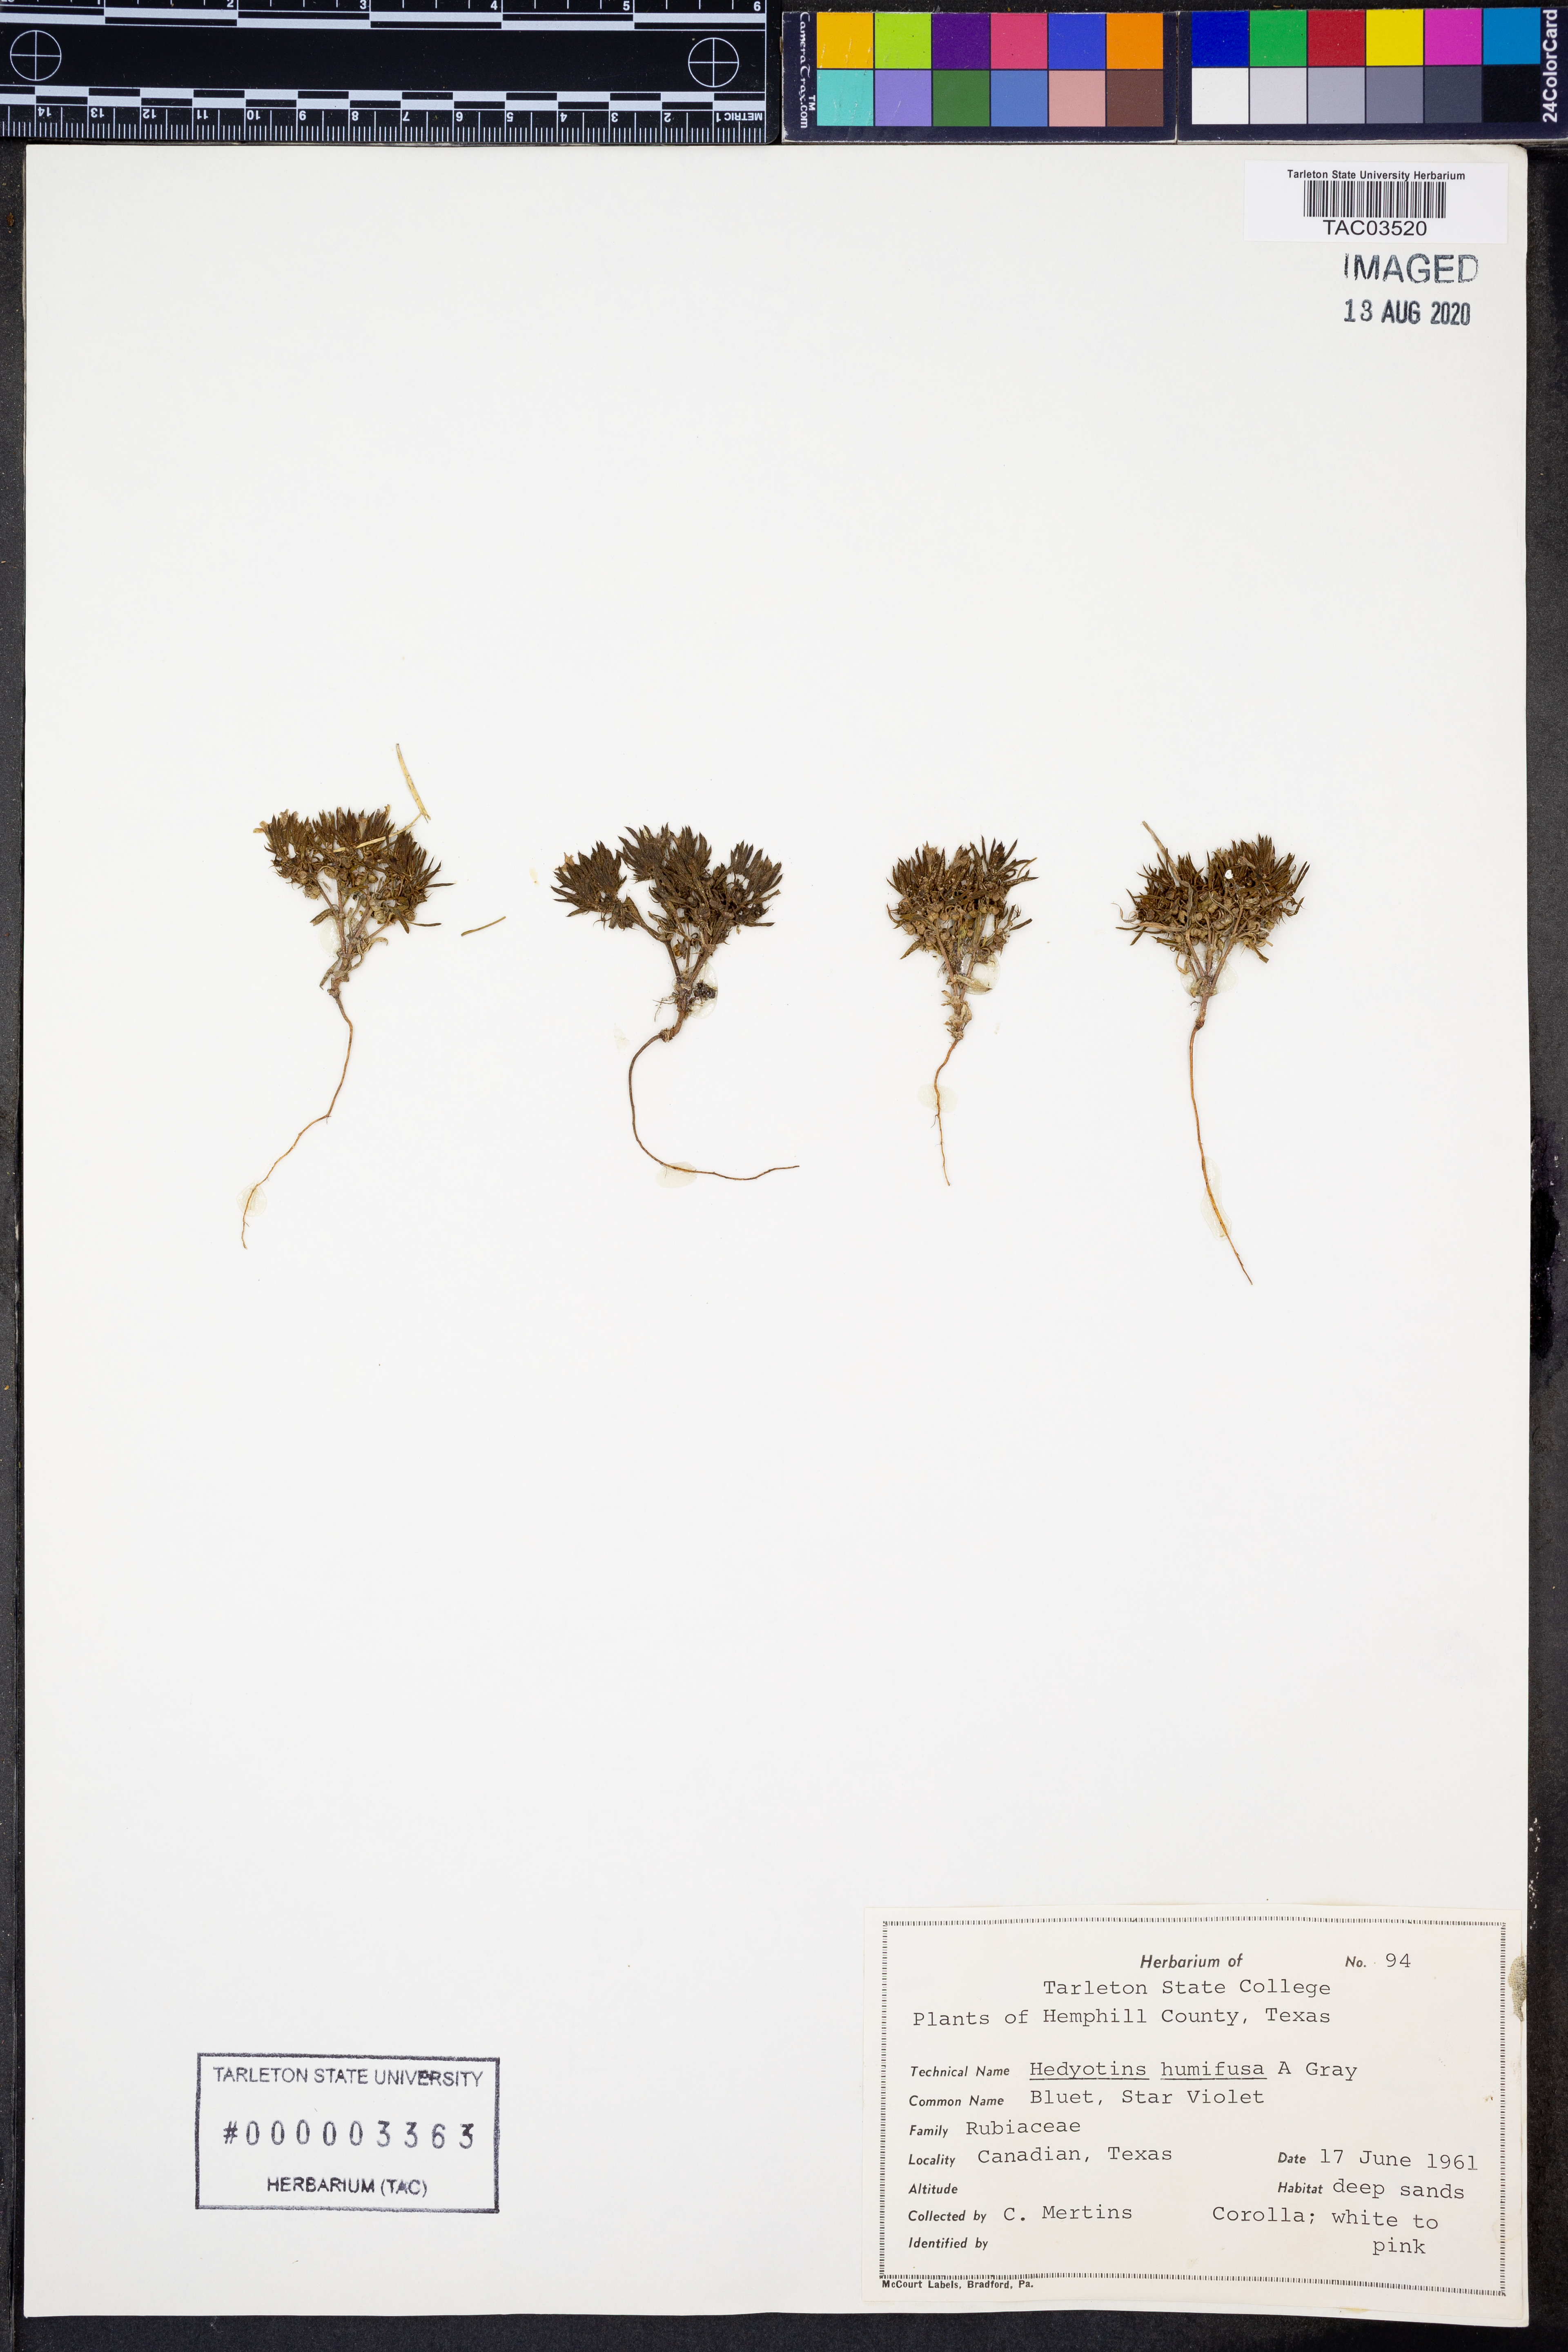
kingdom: Plantae
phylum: Tracheophyta
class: Magnoliopsida
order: Gentianales
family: Rubiaceae
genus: Houstonia
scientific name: Houstonia humifusa
